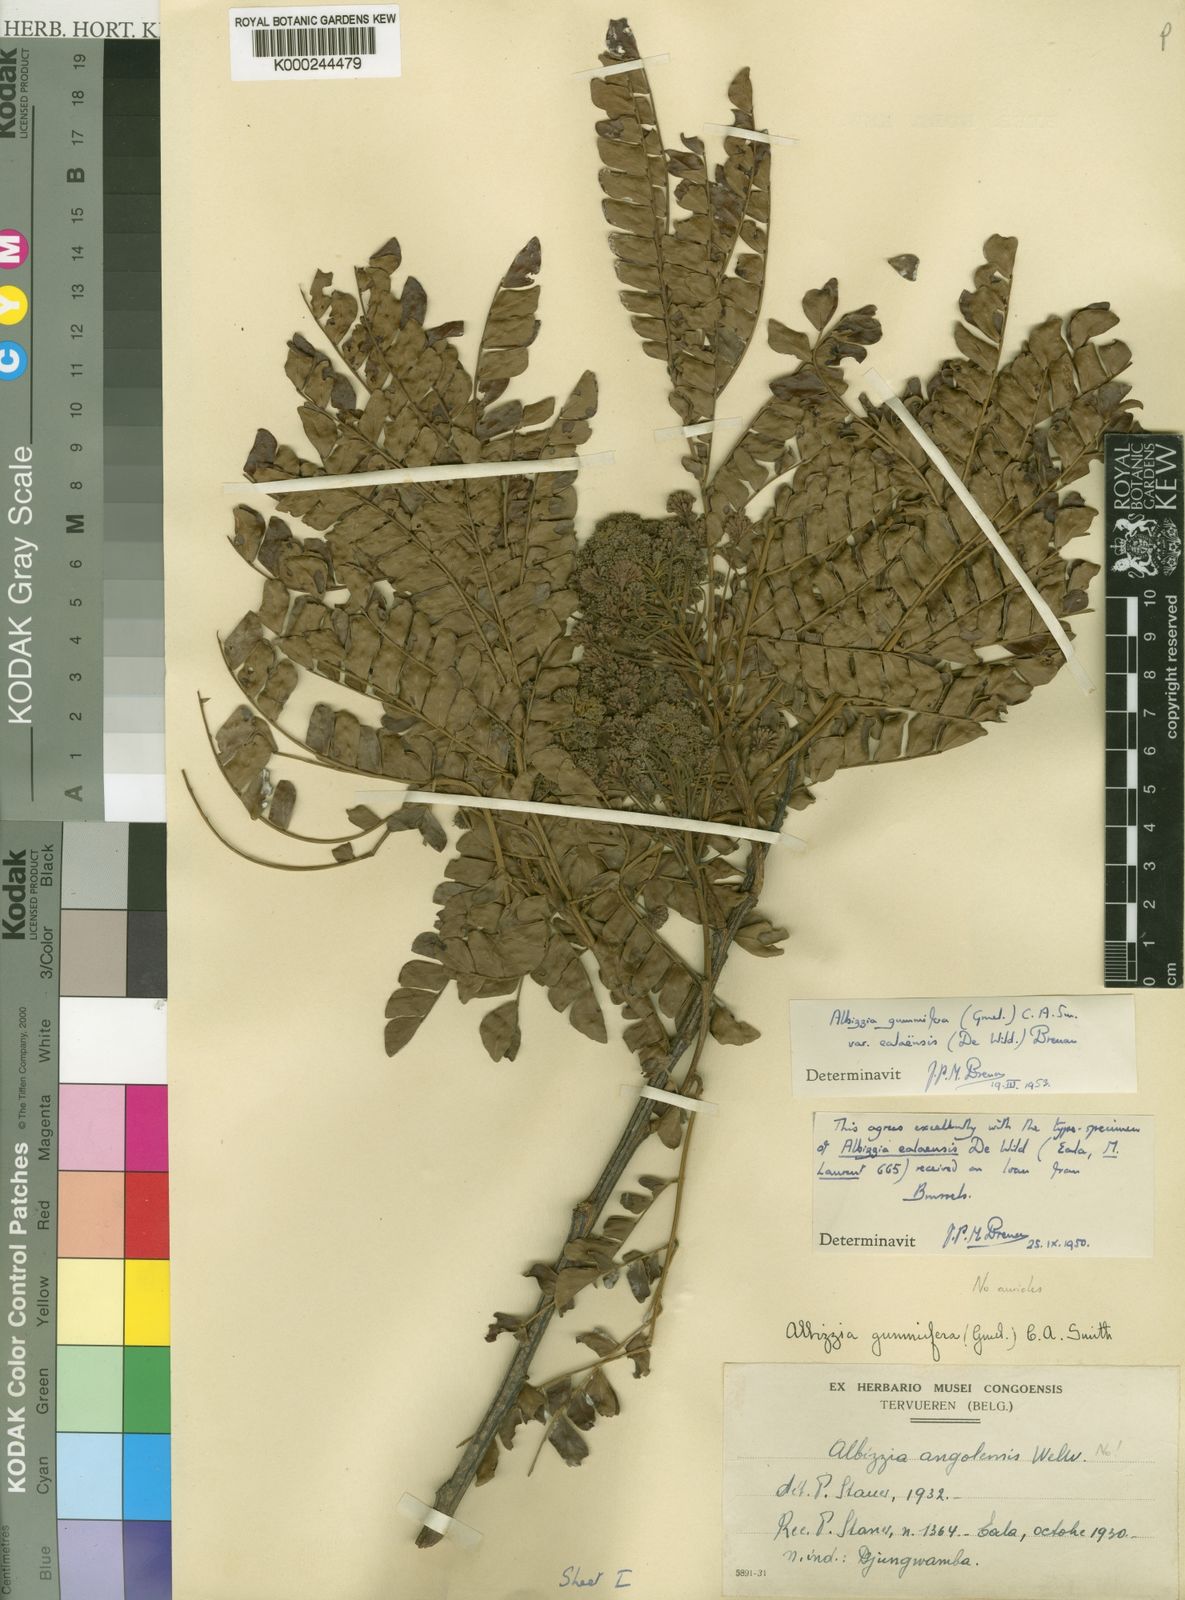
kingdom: Plantae
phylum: Tracheophyta
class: Magnoliopsida
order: Fabales
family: Fabaceae
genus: Albizia
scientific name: Albizia
